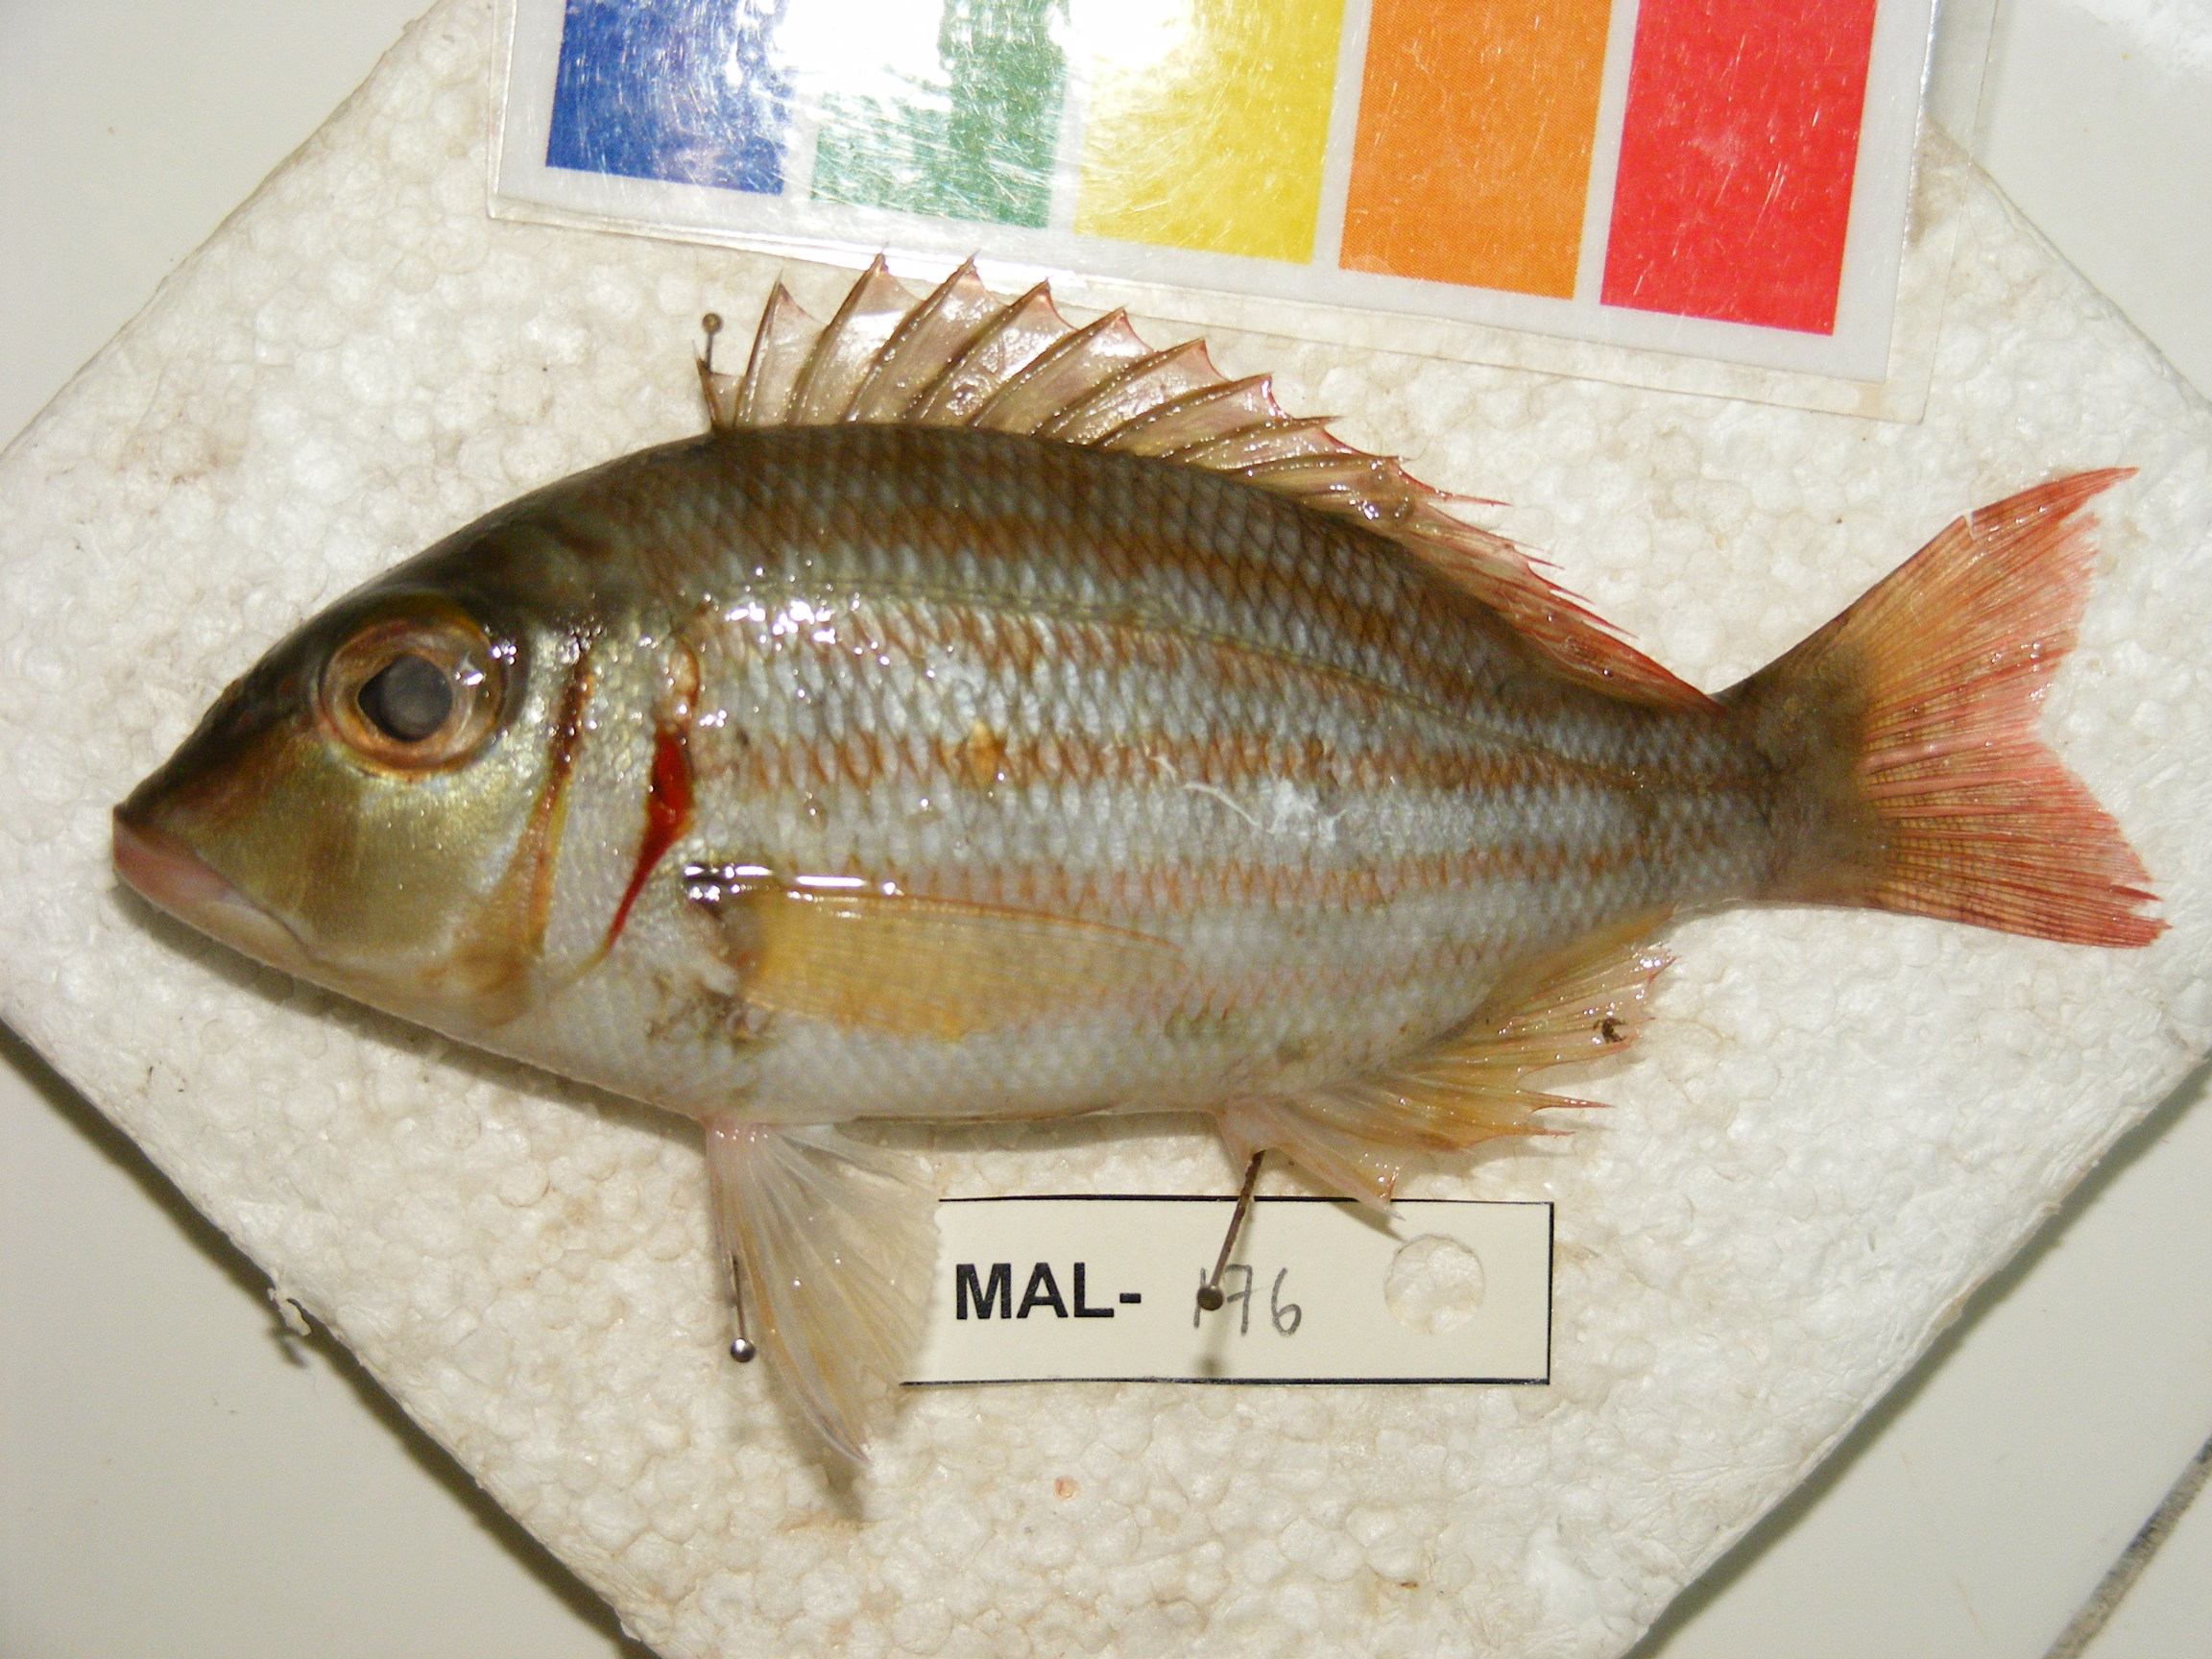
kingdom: Animalia
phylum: Chordata
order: Perciformes
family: Lethrinidae
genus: Lethrinus
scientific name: Lethrinus erythropterus
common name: Longfin emperor
